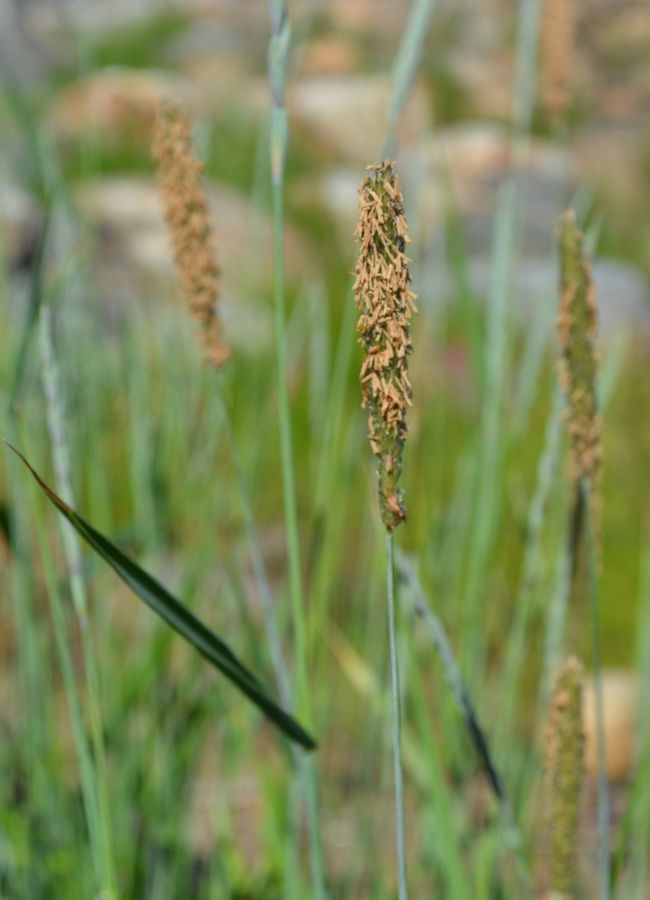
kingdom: Plantae
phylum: Tracheophyta
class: Liliopsida
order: Poales
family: Poaceae
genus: Alopecurus
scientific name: Alopecurus arundinaceus
